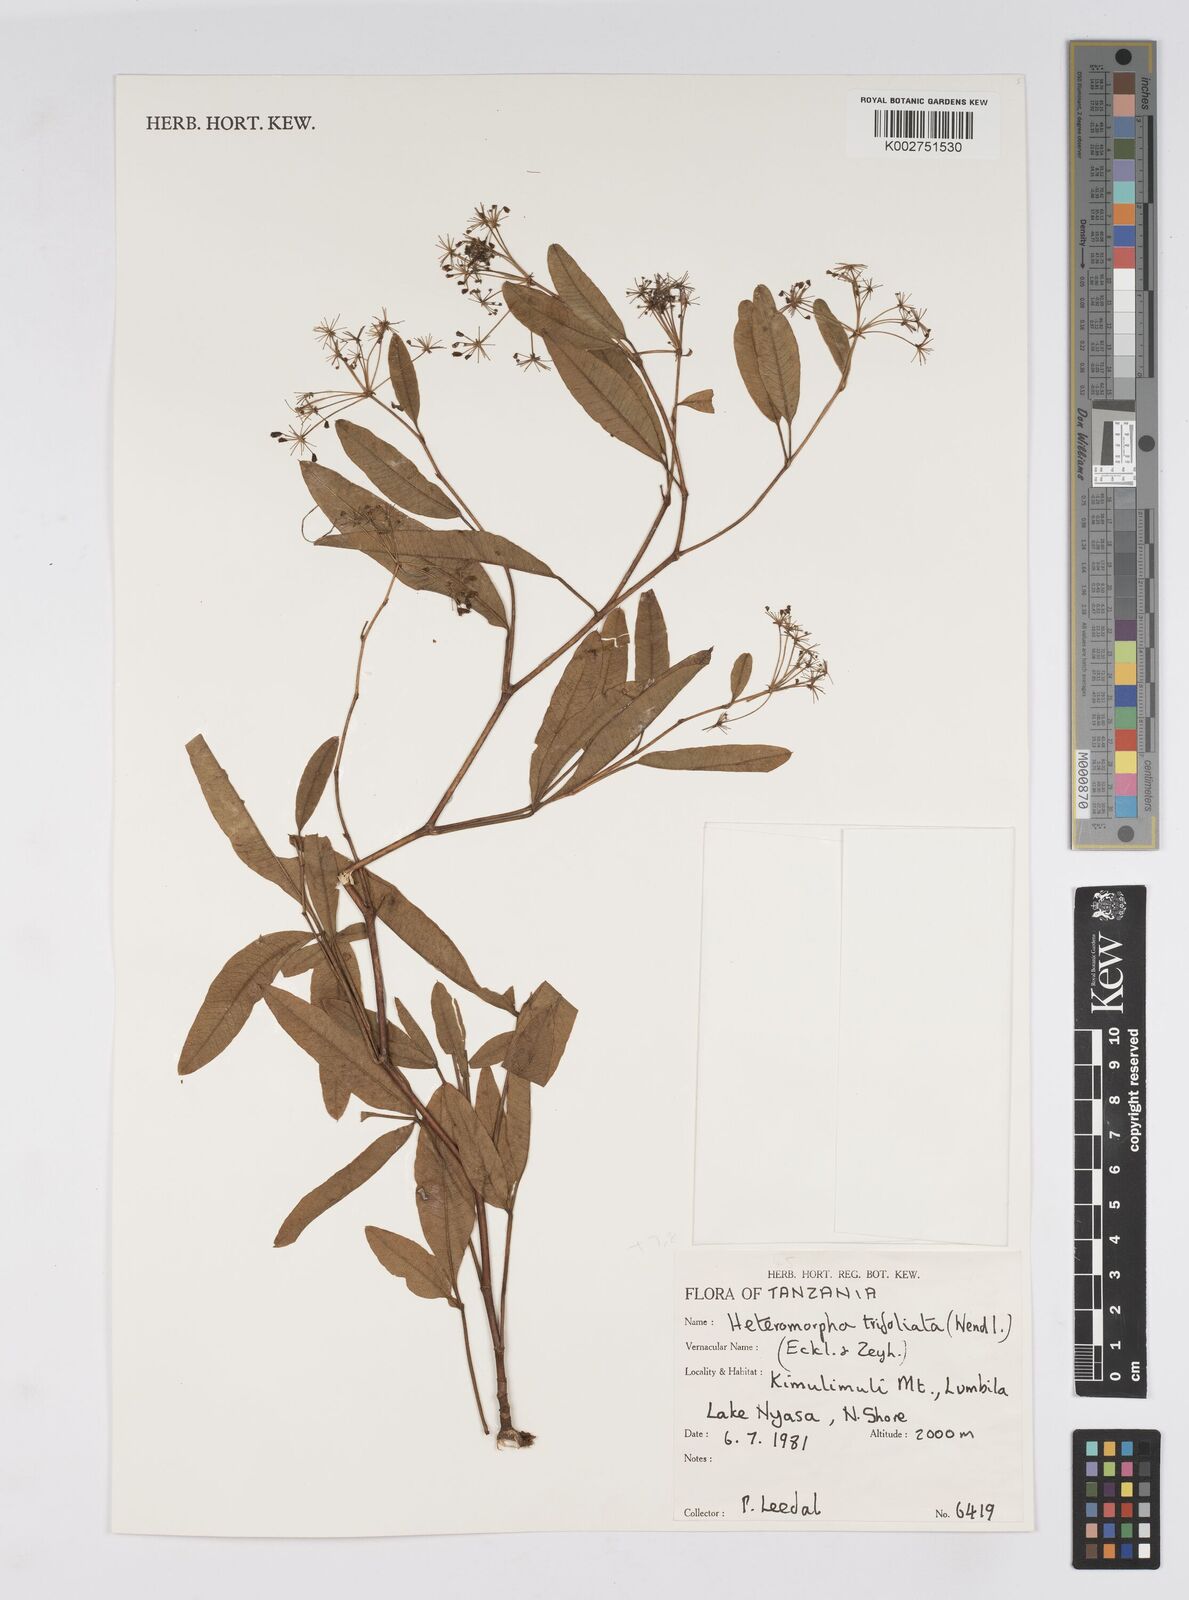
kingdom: Plantae
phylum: Tracheophyta
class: Magnoliopsida
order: Apiales
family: Apiaceae
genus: Heteromorpha
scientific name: Heteromorpha arborescens
